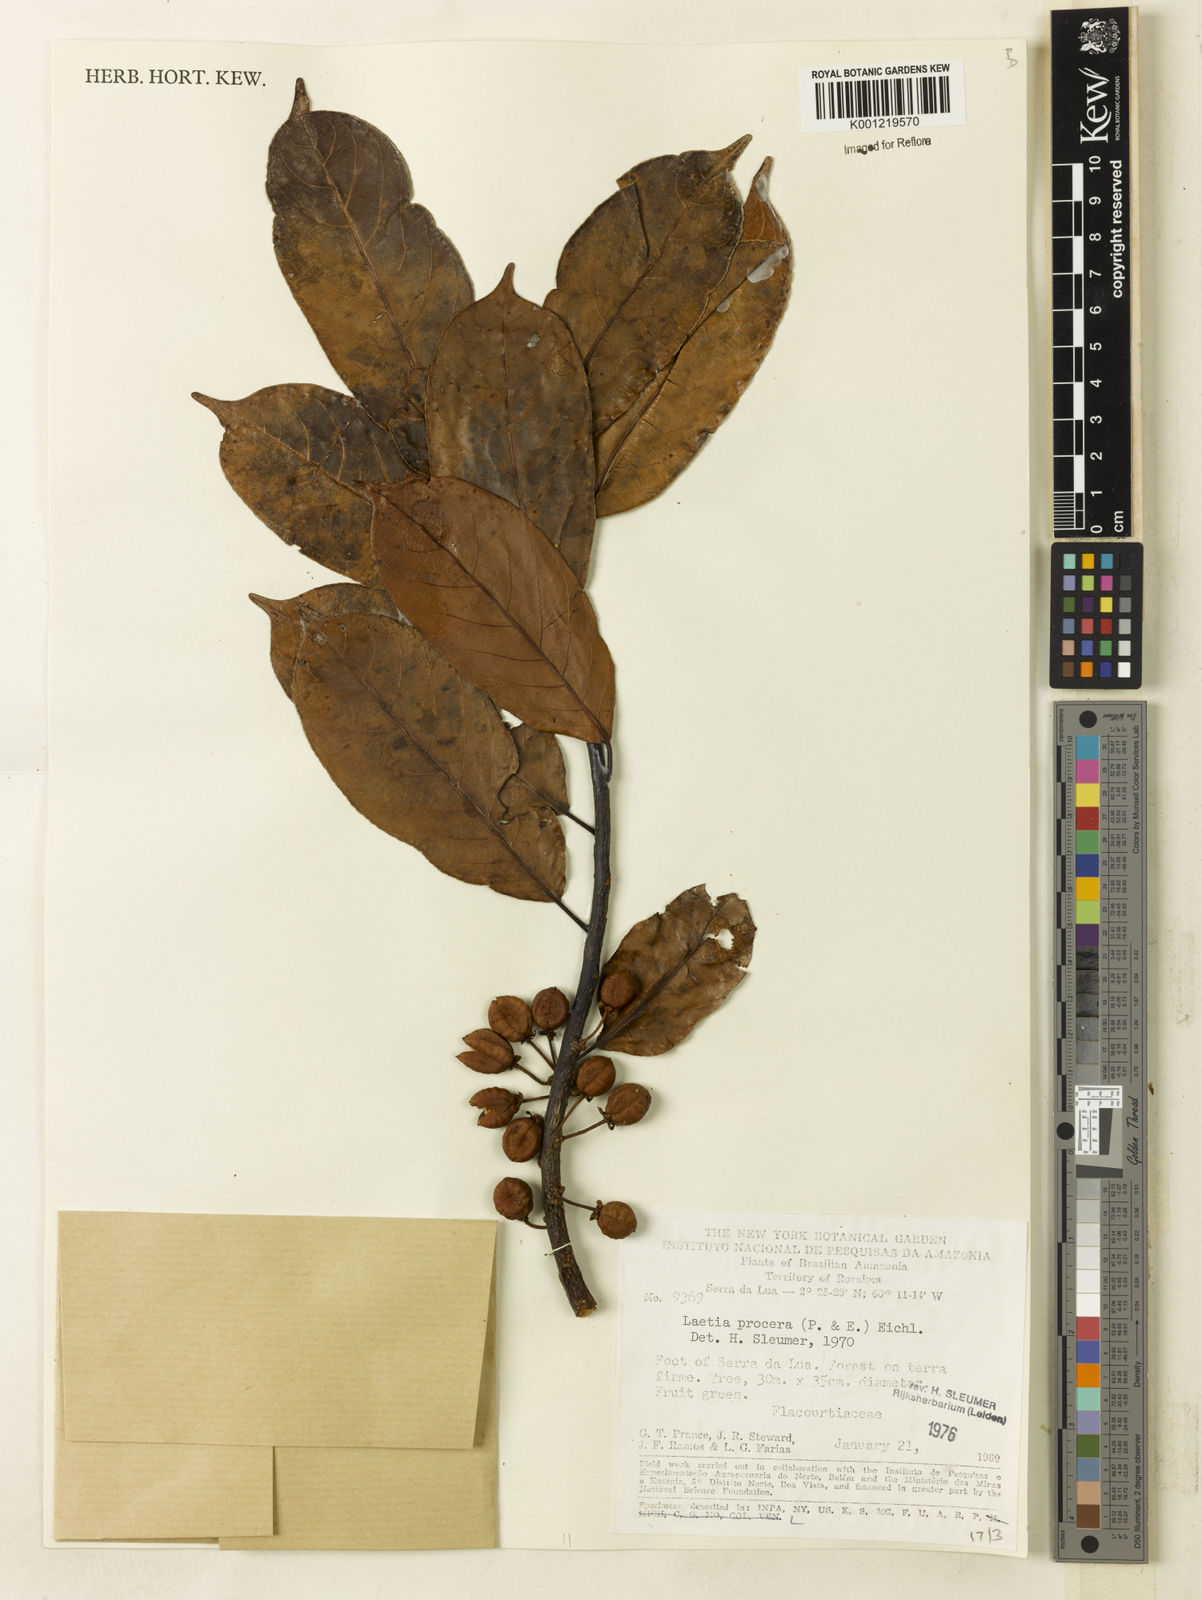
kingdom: Plantae
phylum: Tracheophyta
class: Magnoliopsida
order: Malpighiales
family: Salicaceae
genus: Casearia
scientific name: Casearia bicolor
